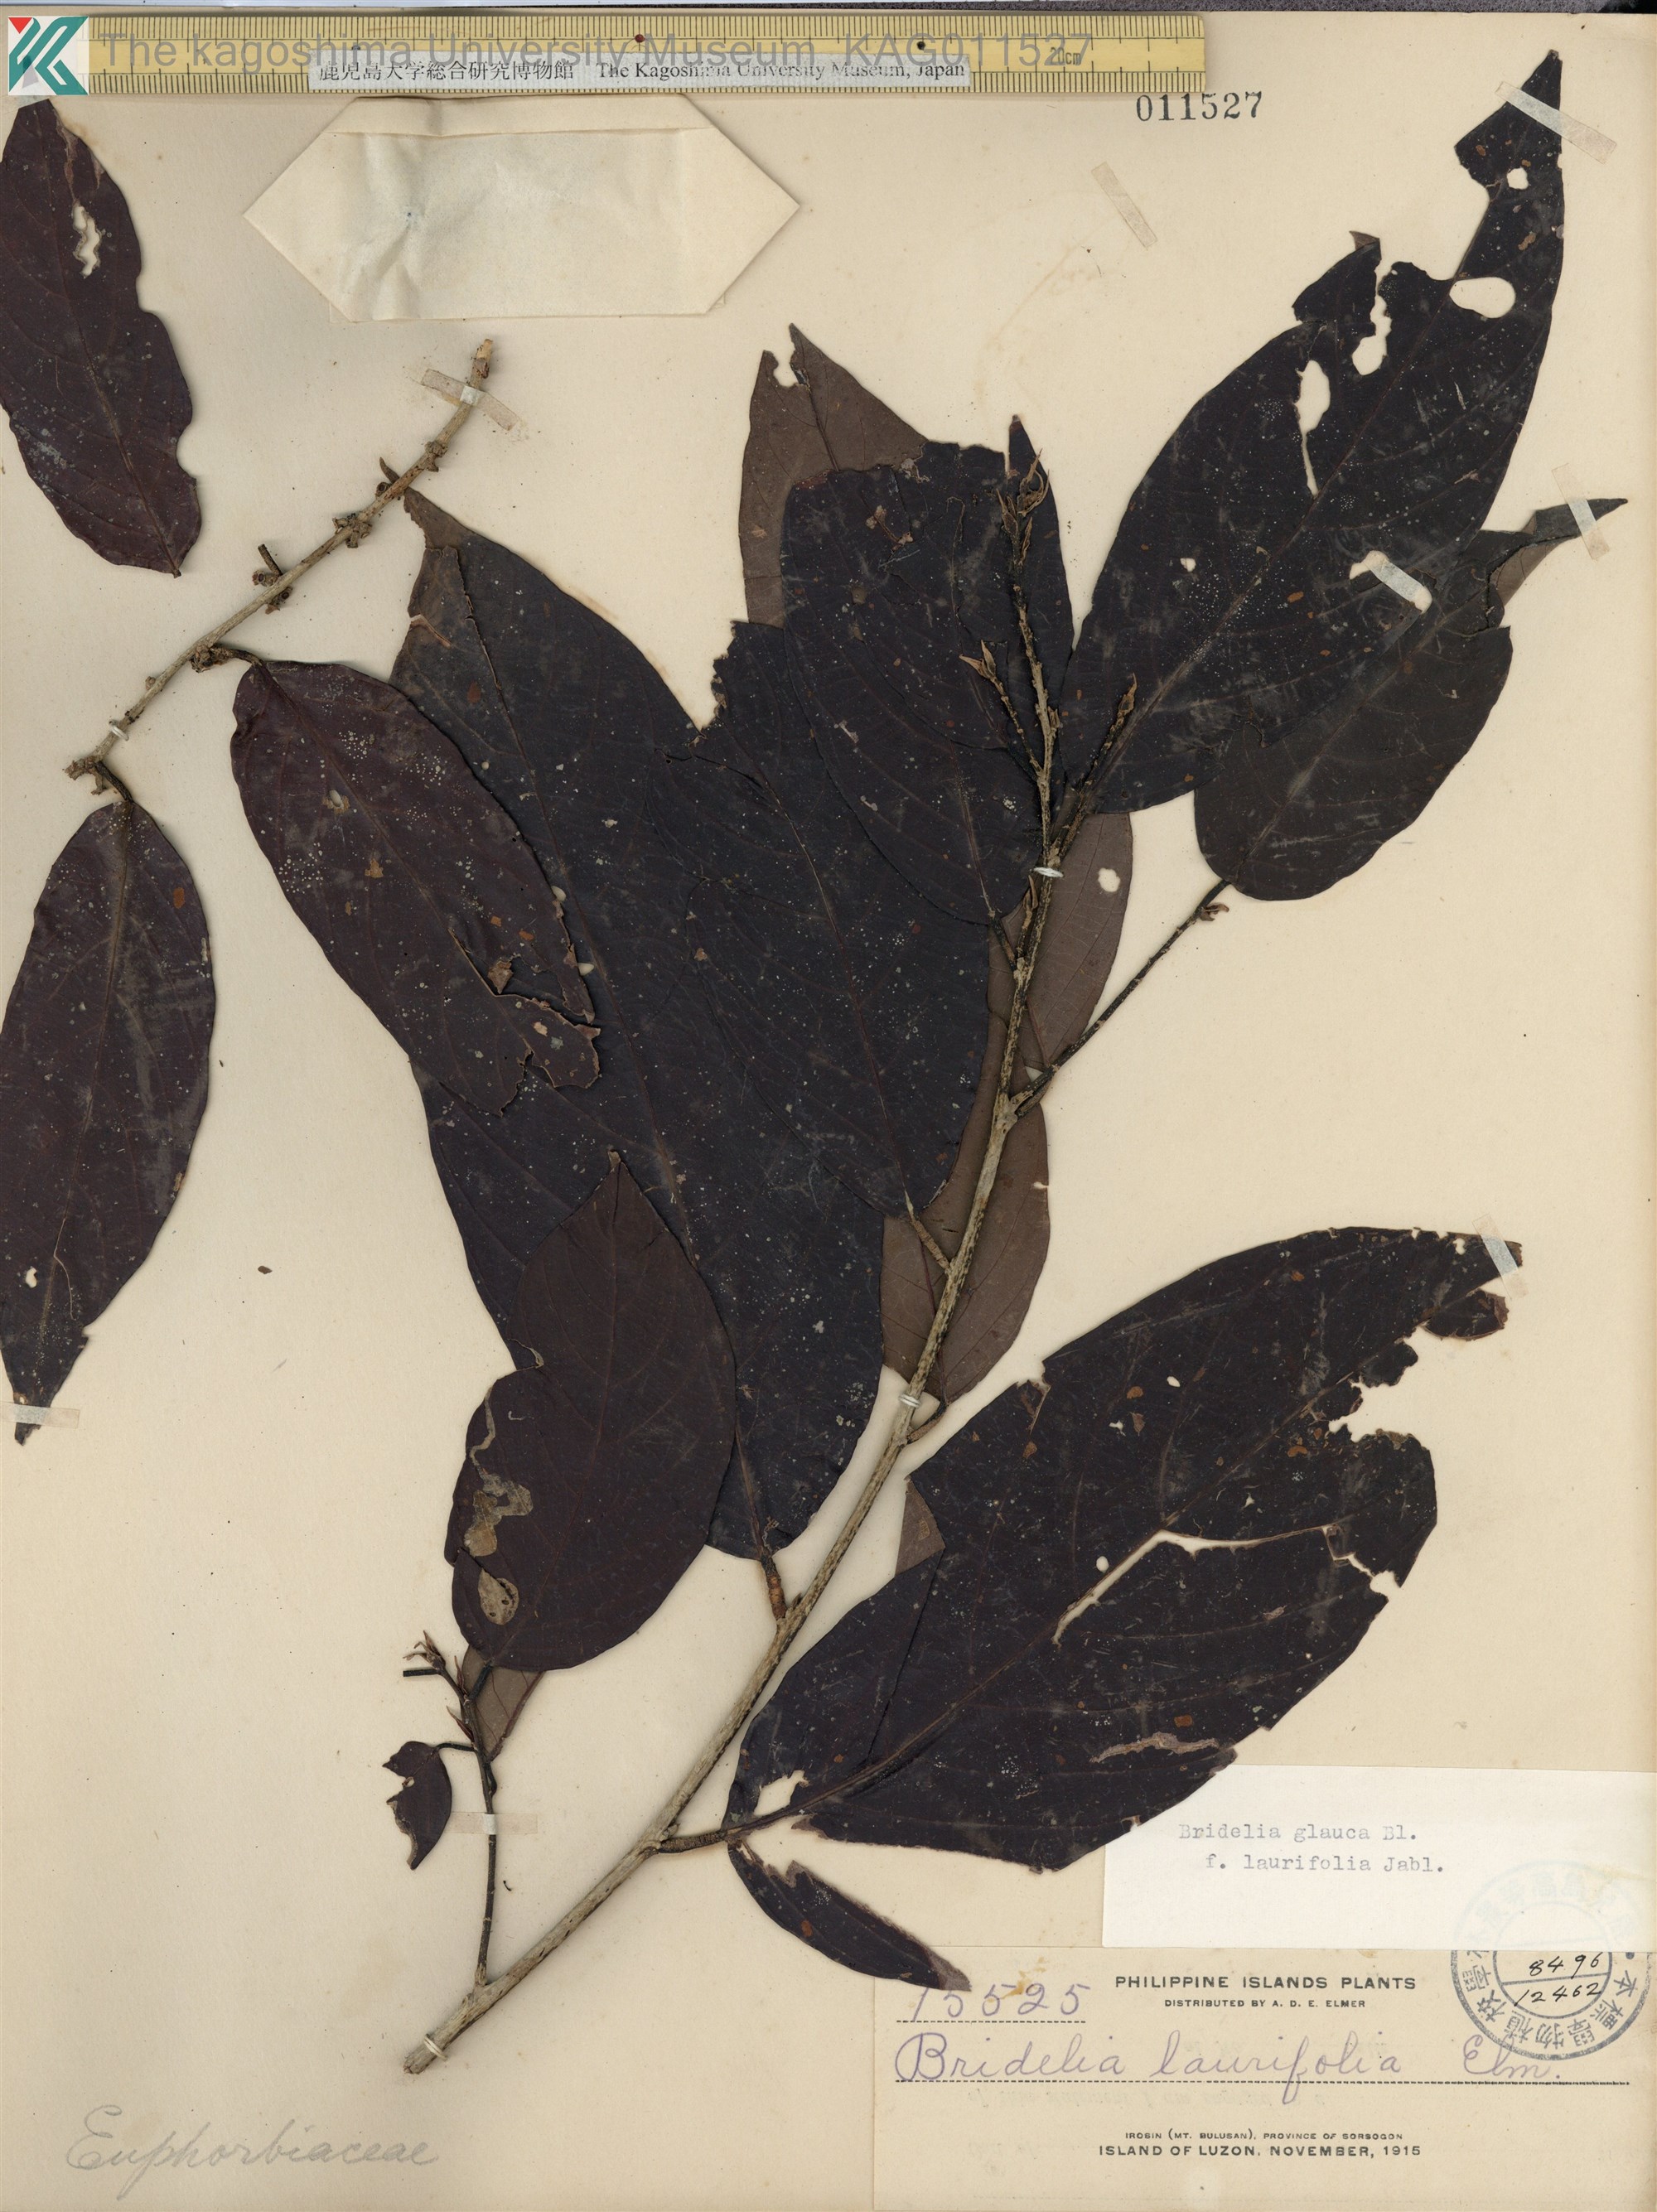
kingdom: Plantae
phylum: Tracheophyta
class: Magnoliopsida
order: Malpighiales
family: Phyllanthaceae
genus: Bridelia
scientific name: Bridelia glauca
